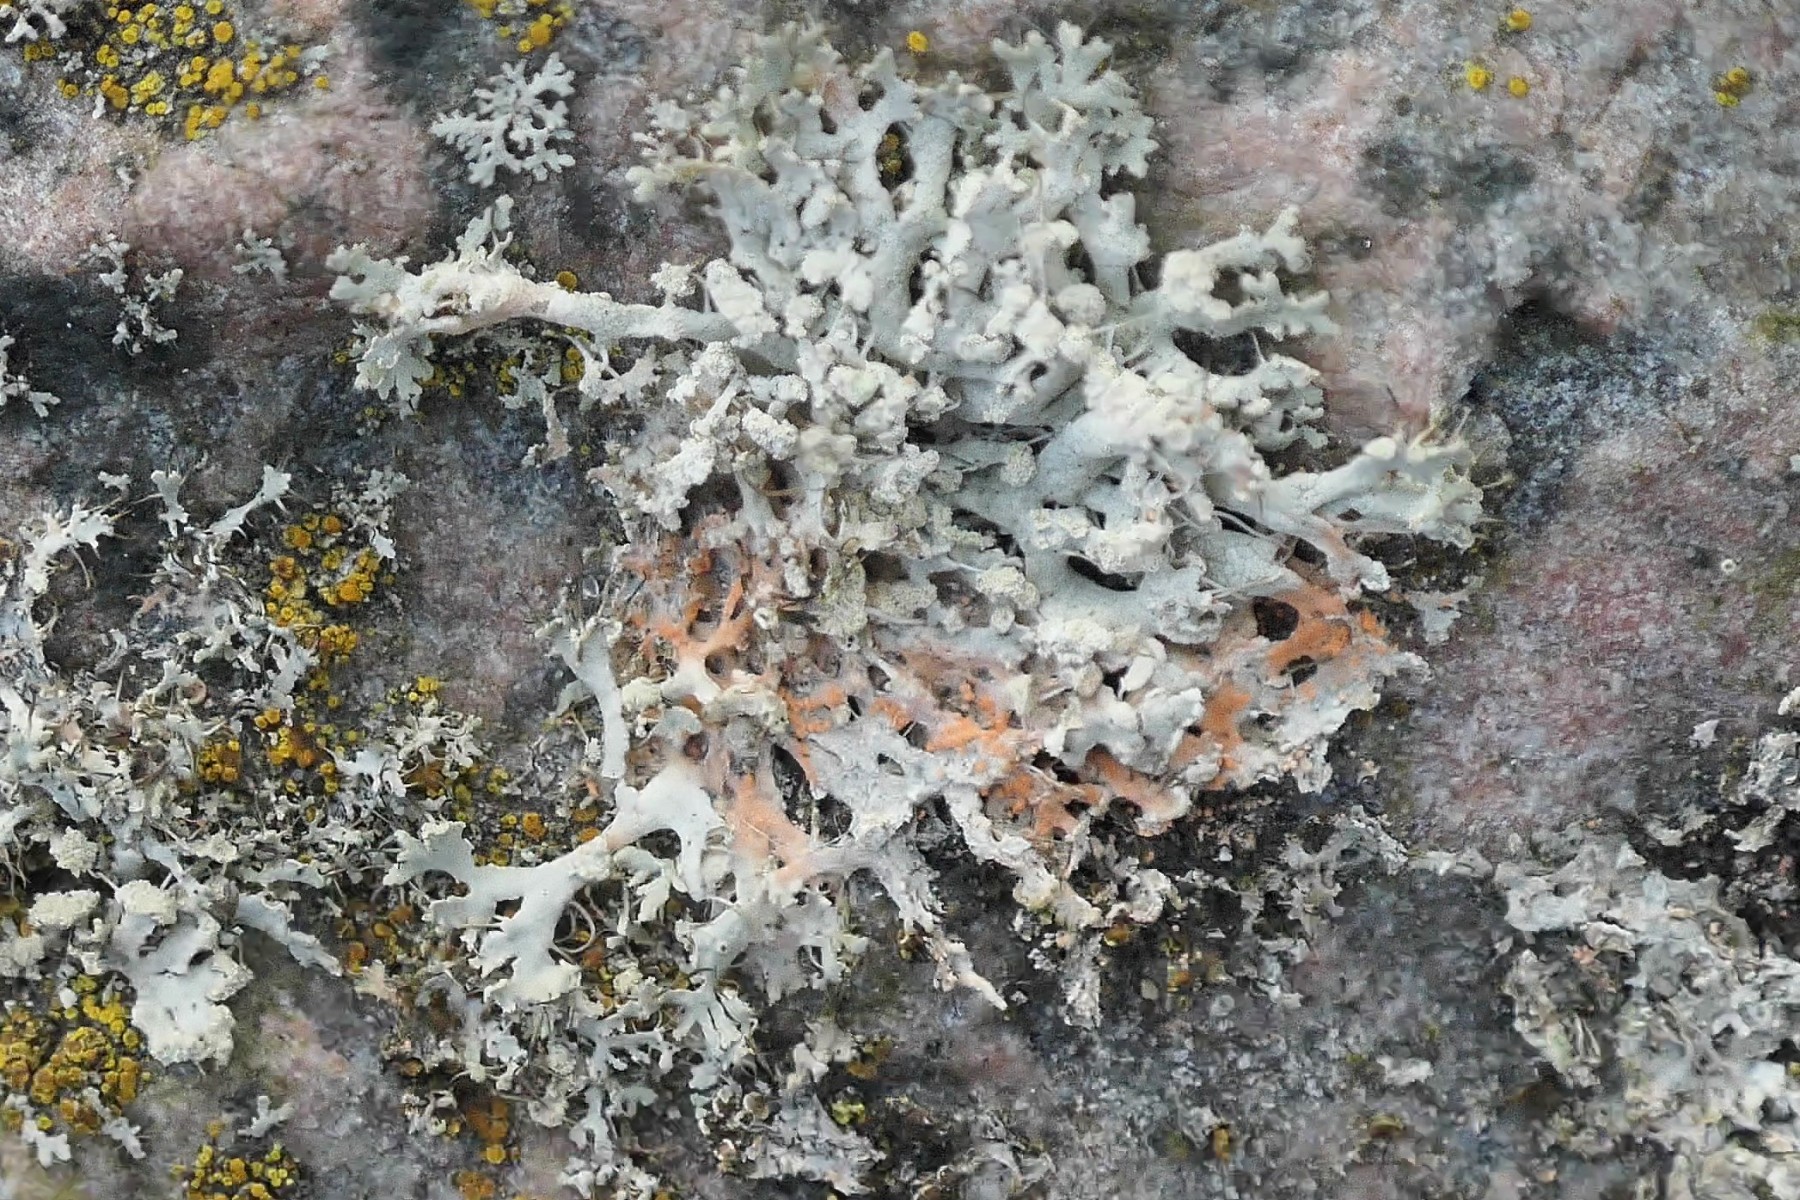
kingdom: Fungi
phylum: Basidiomycota
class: Agaricomycetes
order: Corticiales
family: Corticiaceae
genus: Erythricium
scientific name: Erythricium aurantiacum
